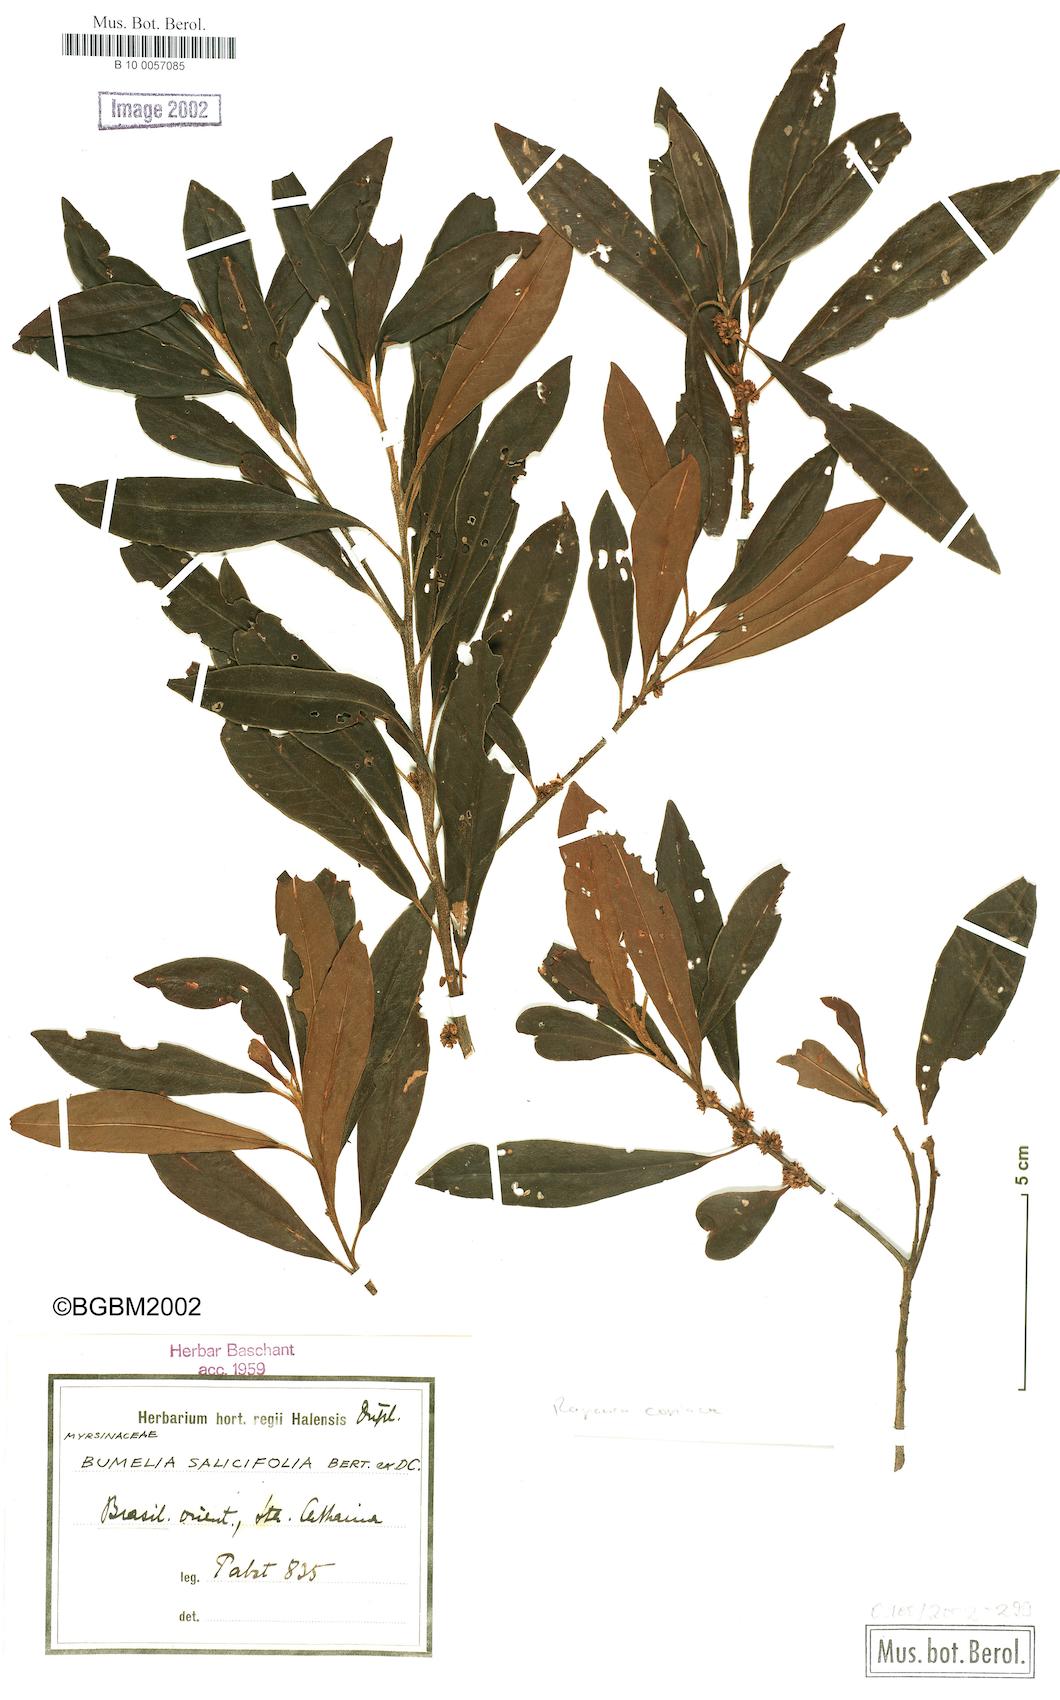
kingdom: Plantae
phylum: Tracheophyta
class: Magnoliopsida
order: Ericales
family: Primulaceae
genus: Myrsine
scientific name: Myrsine coriacea
